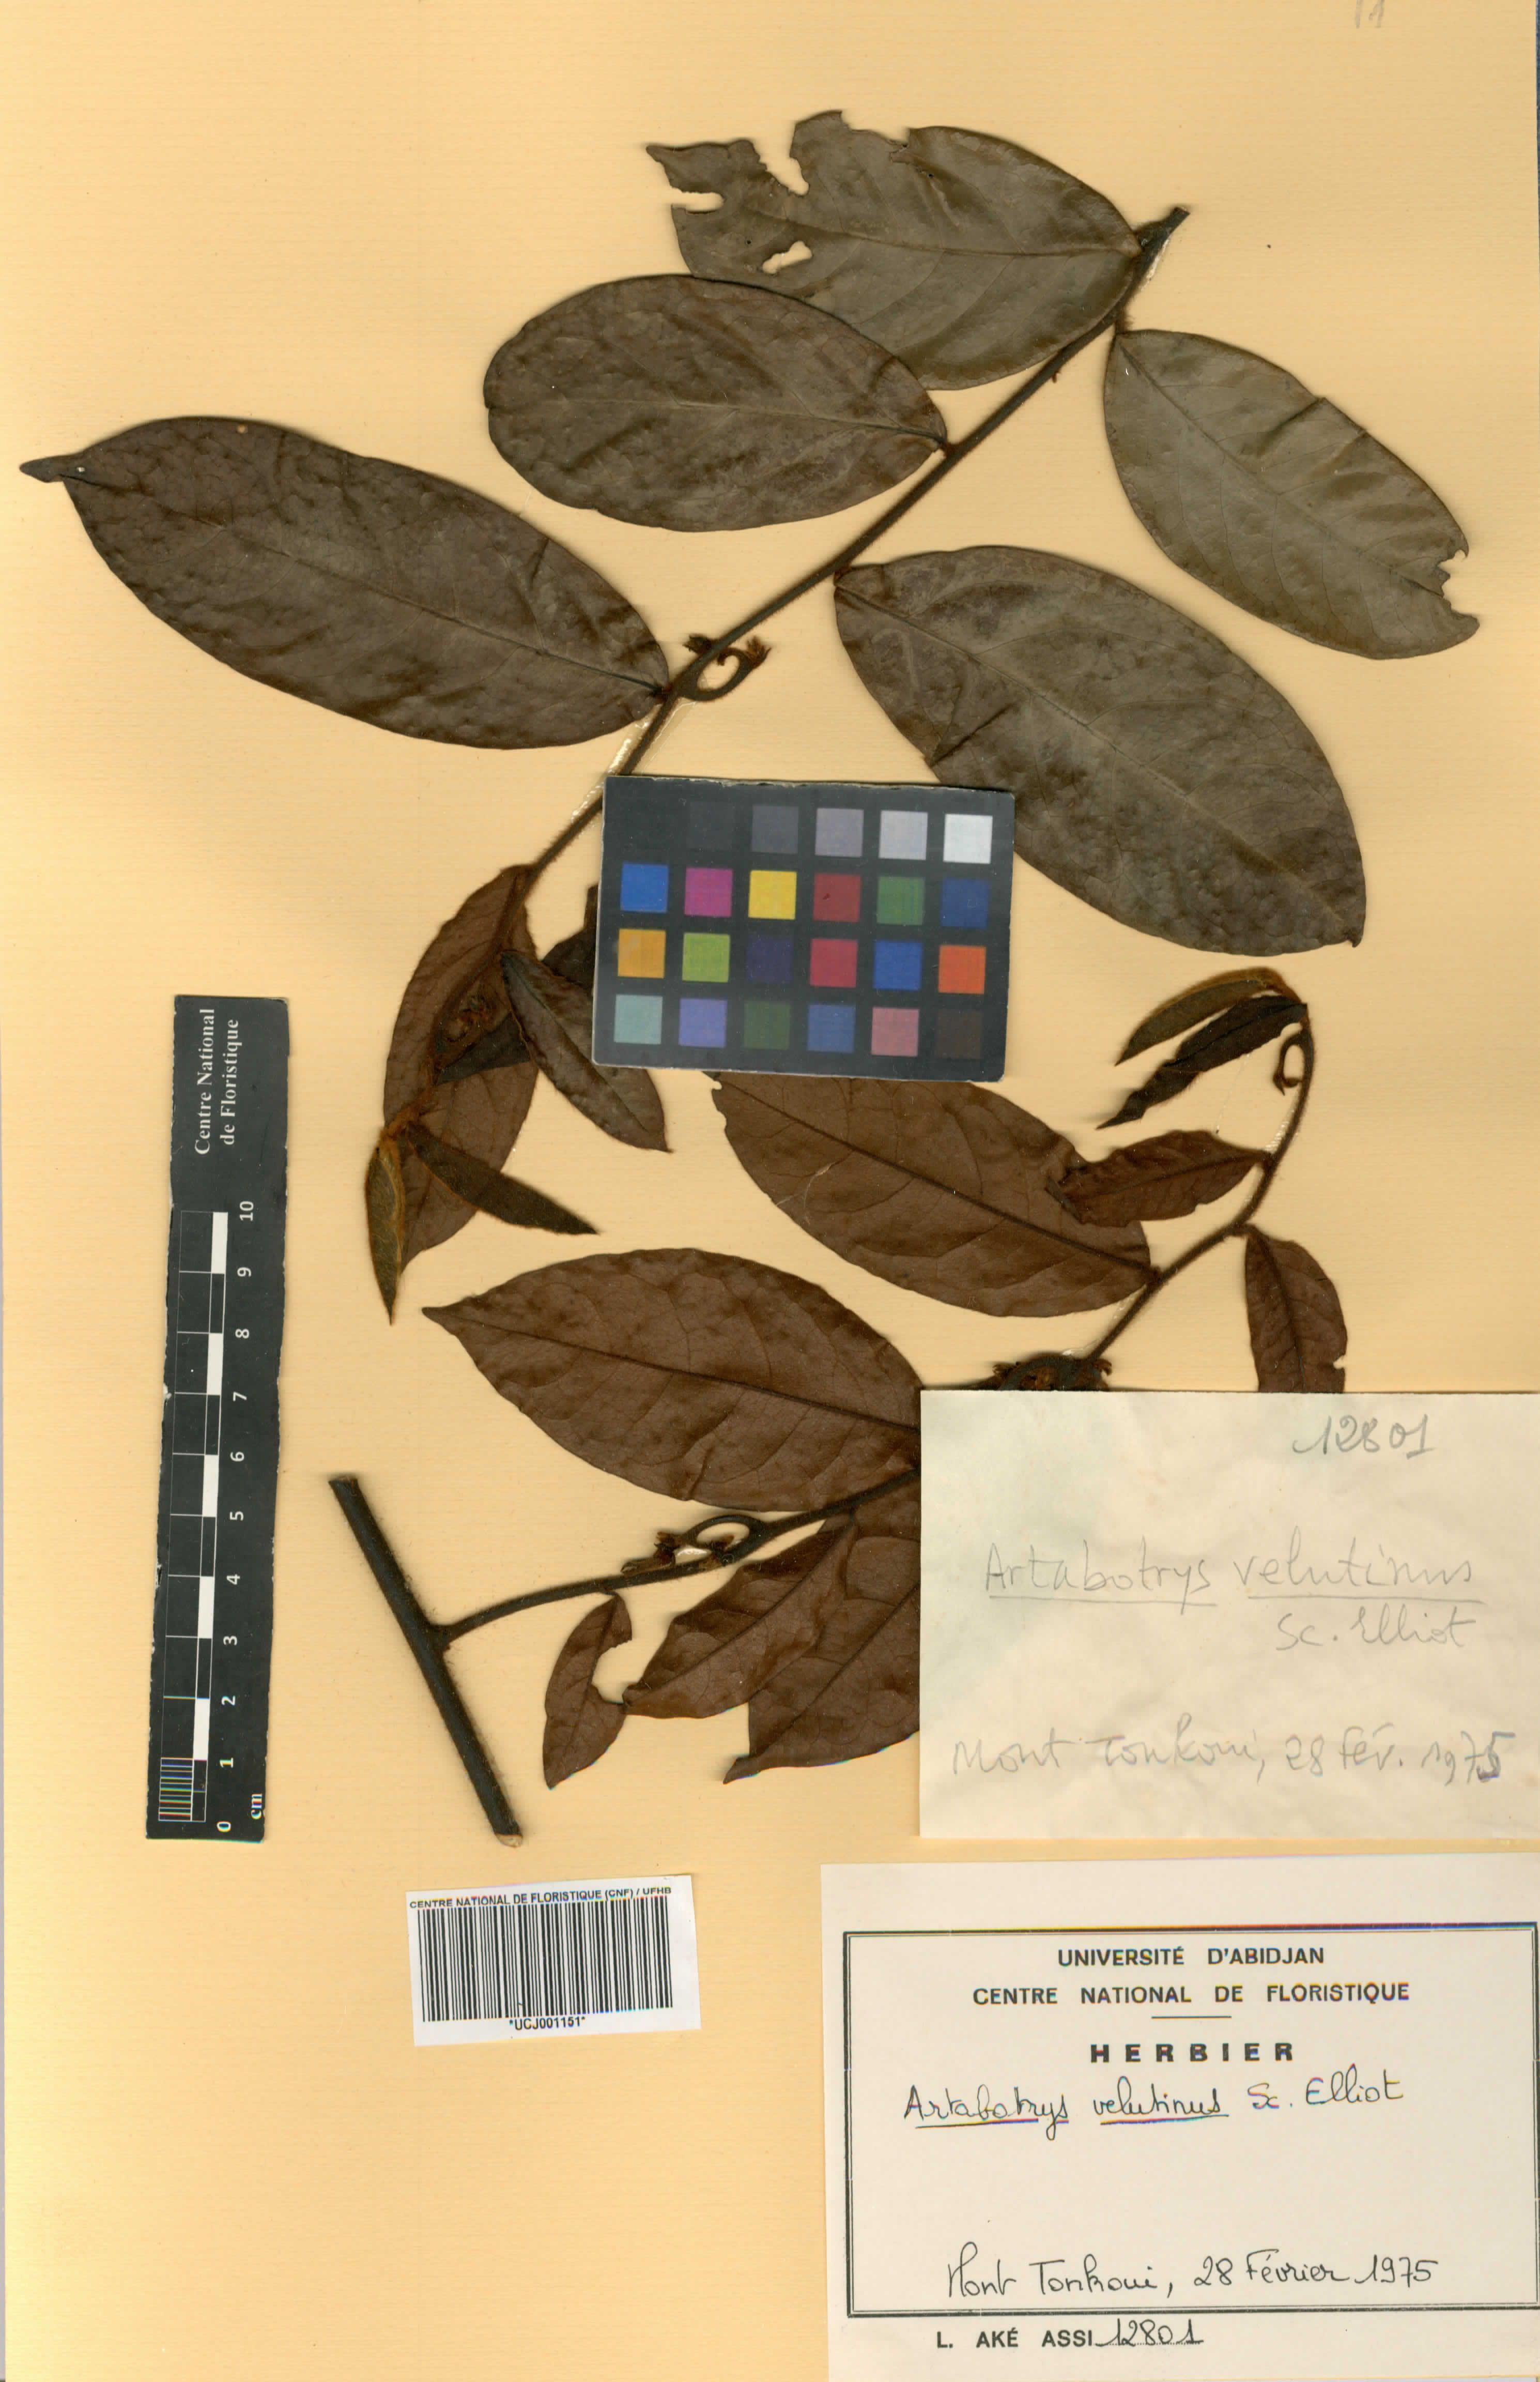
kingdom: Plantae
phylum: Tracheophyta
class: Magnoliopsida
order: Magnoliales
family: Annonaceae
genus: Artabotrys
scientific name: Artabotrys velutinus
